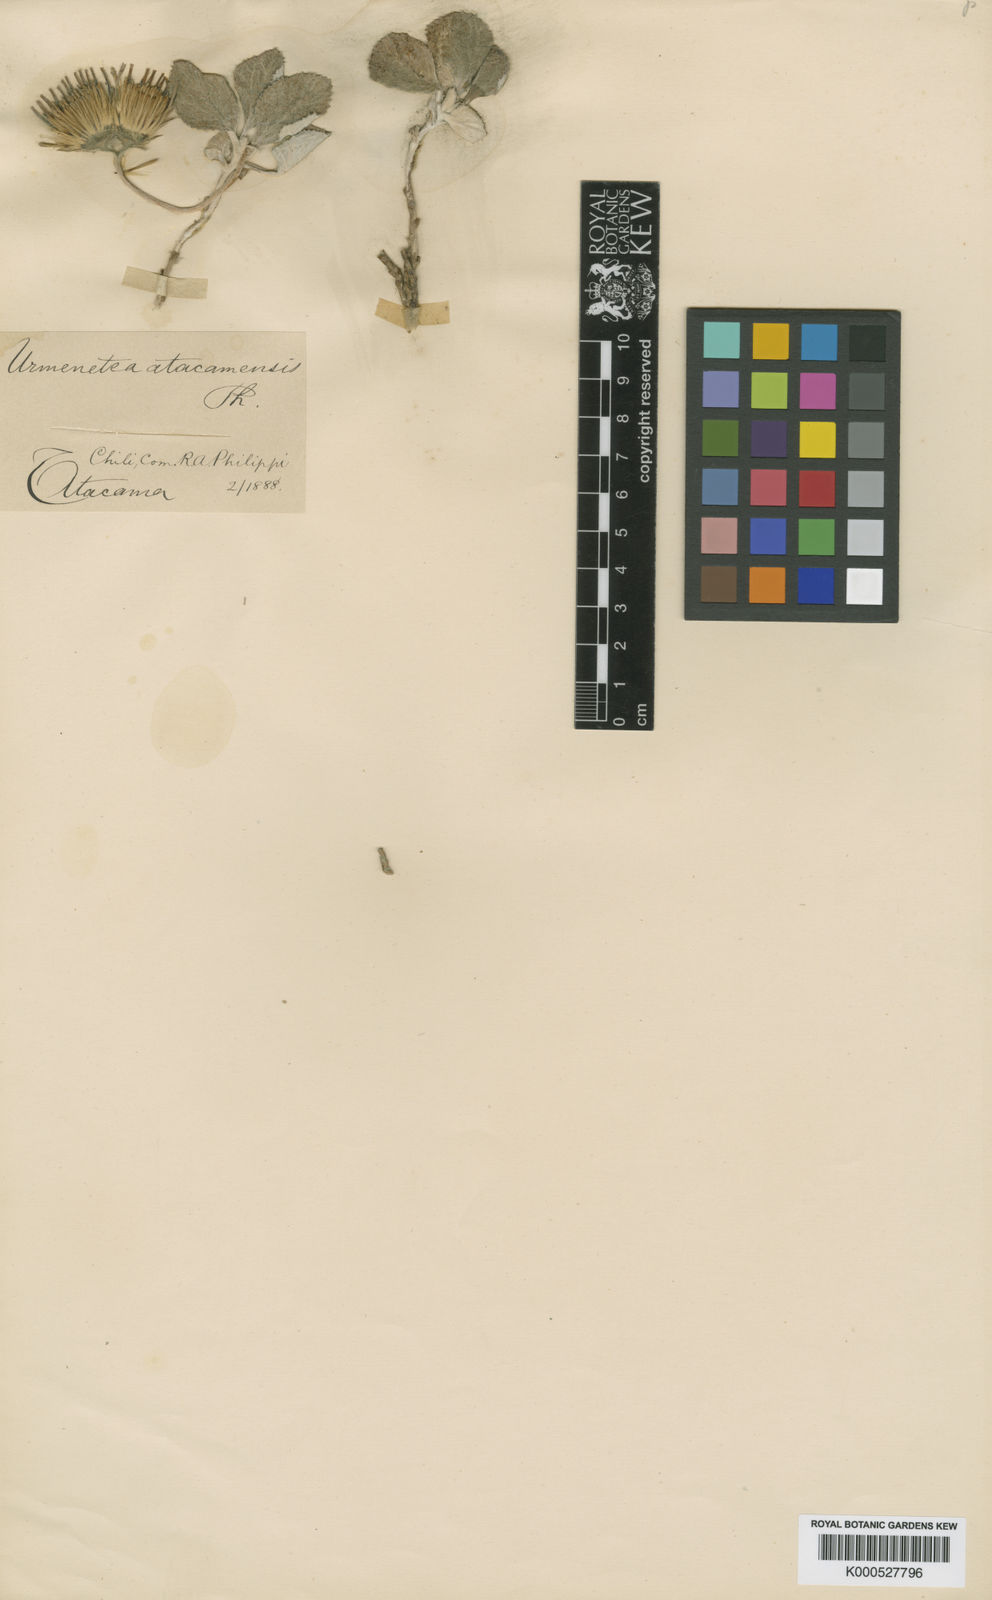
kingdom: Plantae
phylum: Tracheophyta
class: Magnoliopsida
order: Asterales
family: Asteraceae
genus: Urmenetea
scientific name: Urmenetea atacamensis
